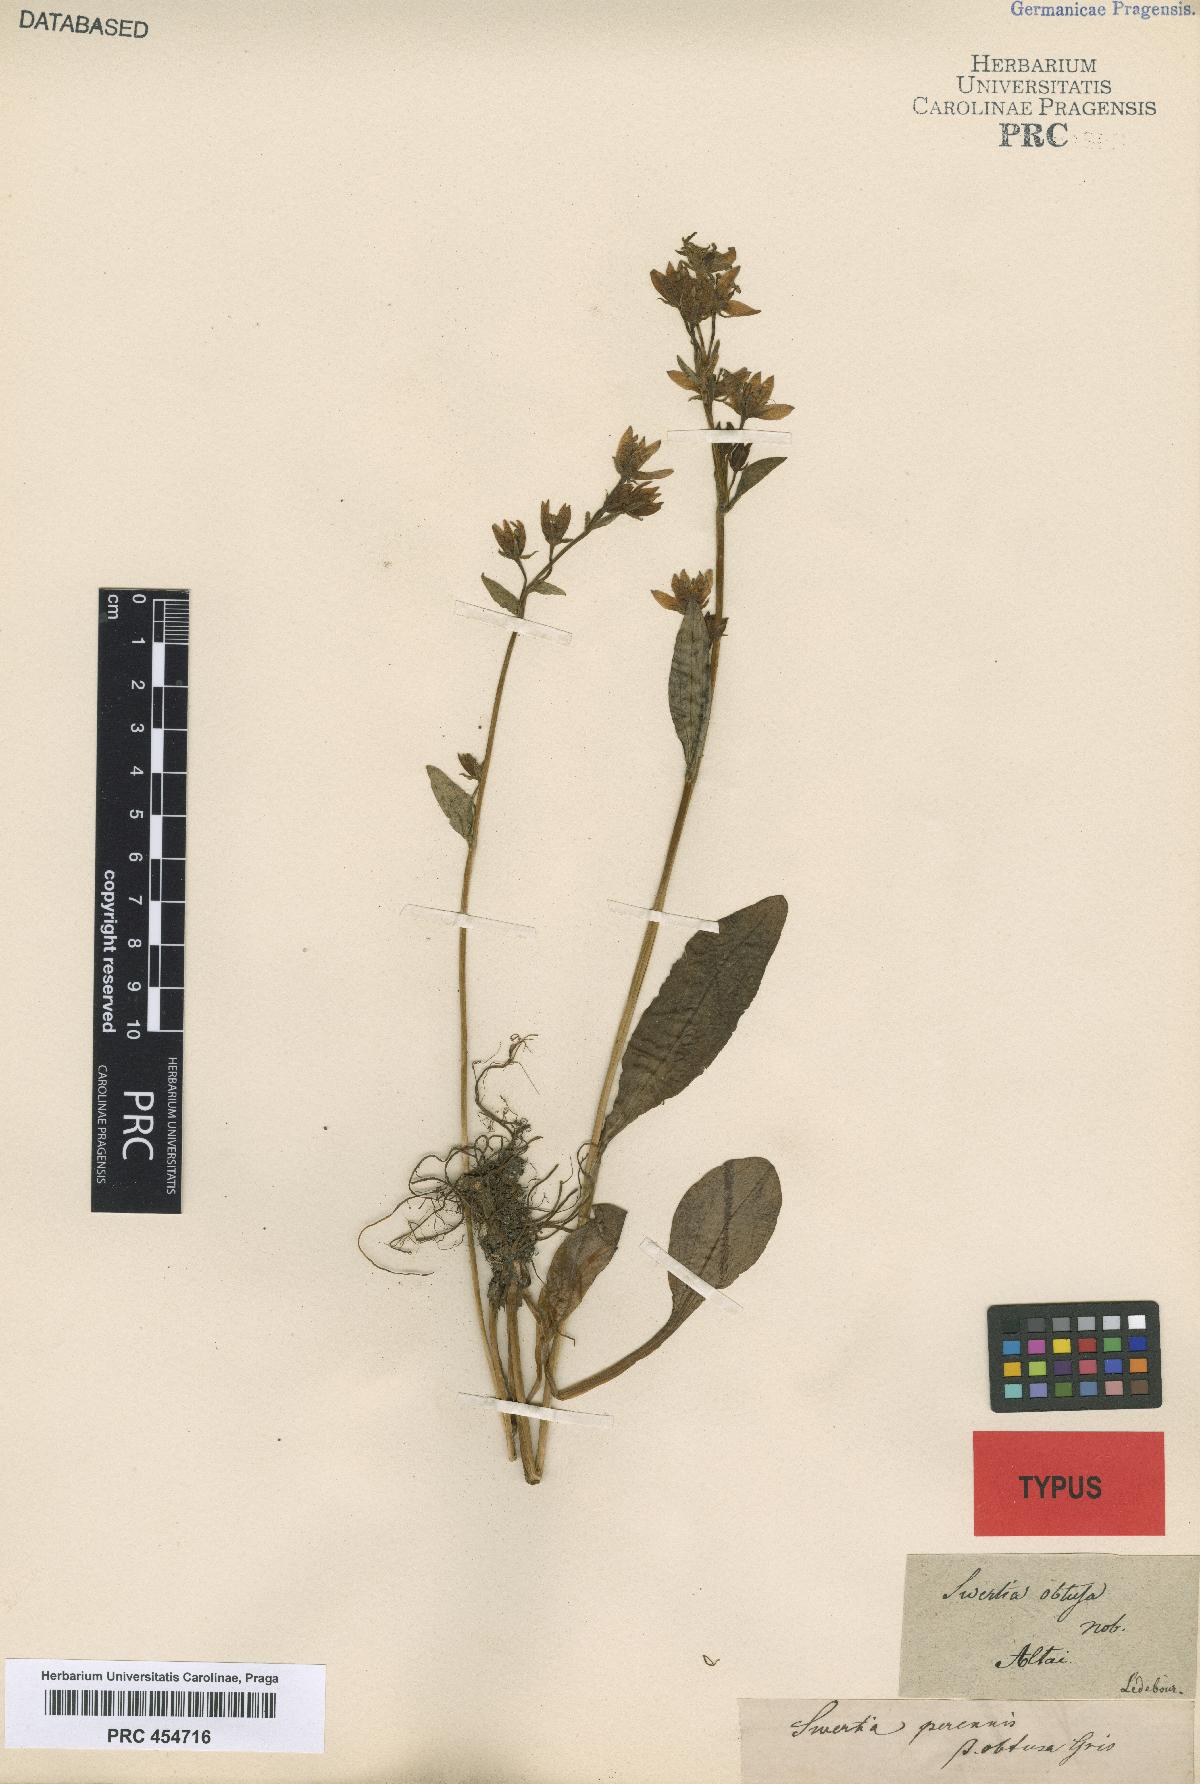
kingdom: Plantae
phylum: Tracheophyta
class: Magnoliopsida
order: Gentianales
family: Gentianaceae
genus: Swertia
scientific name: Swertia obtusa
